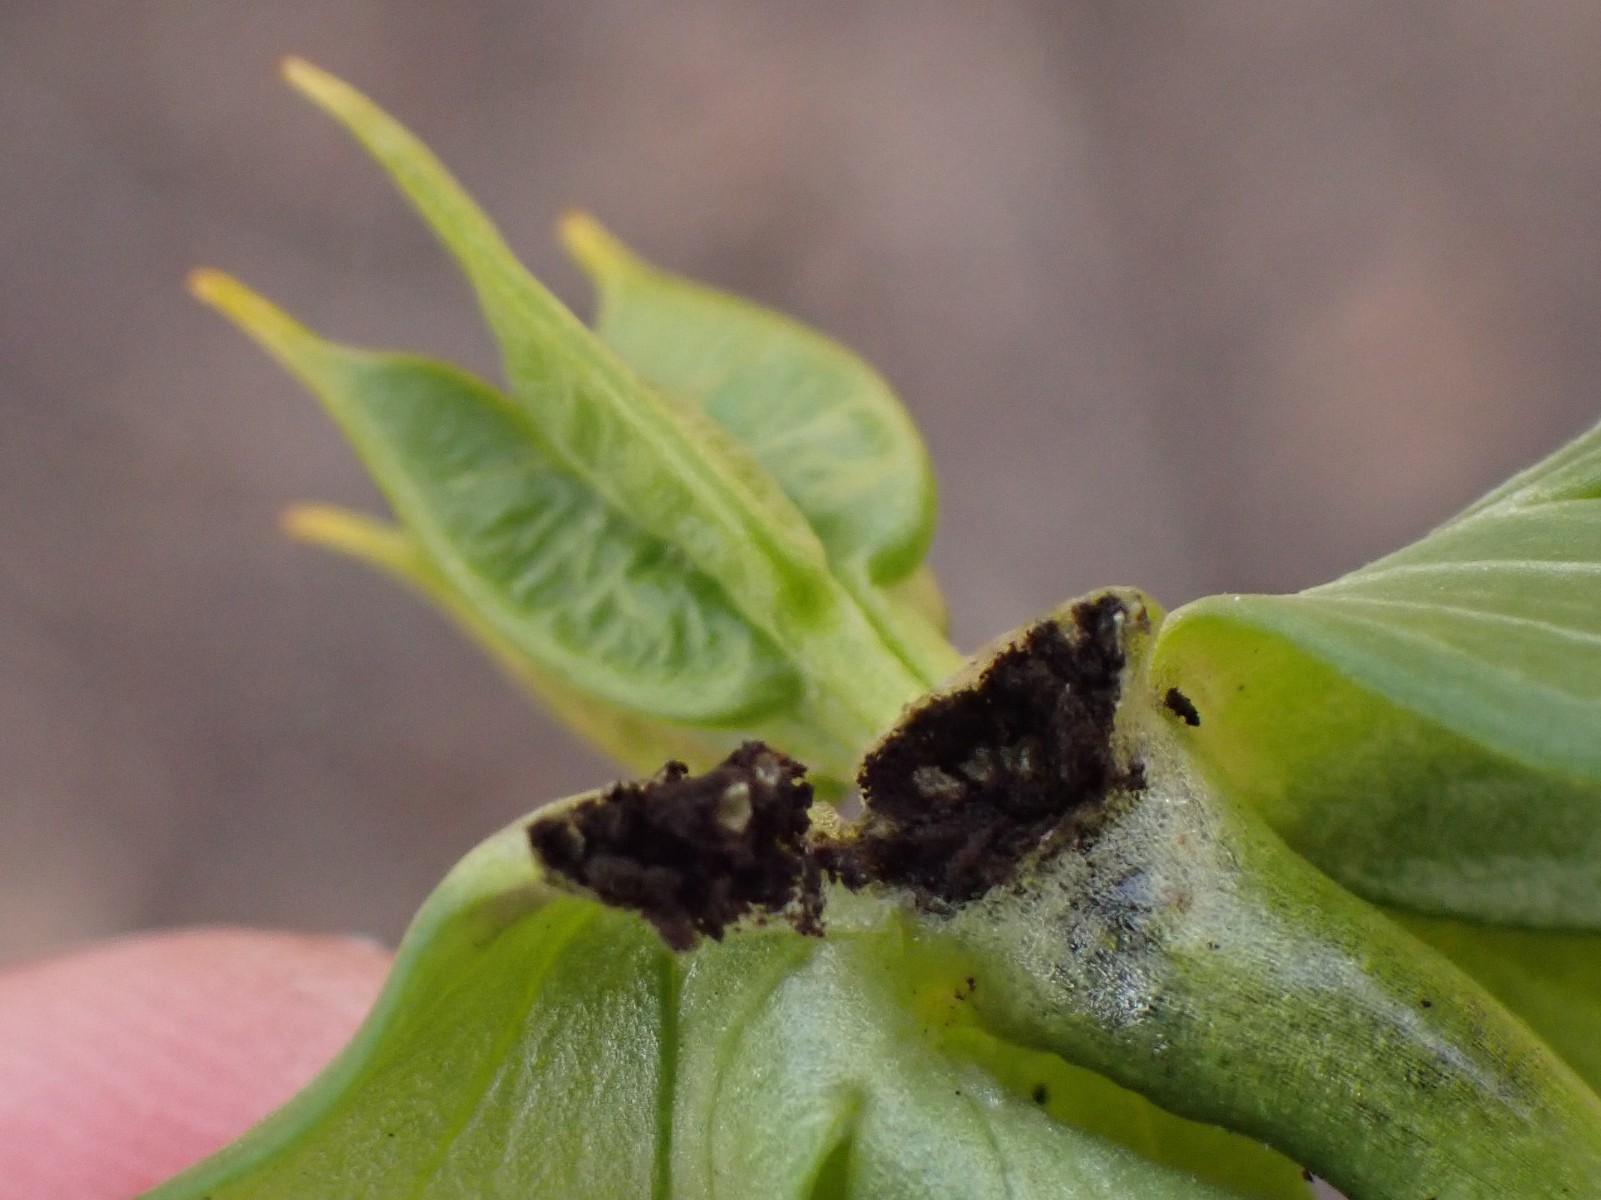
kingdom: Fungi
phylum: Basidiomycota
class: Ustilaginomycetes
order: Urocystidales
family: Urocystidaceae
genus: Urocystis
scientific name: Urocystis eranthidis
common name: erantis-brand
